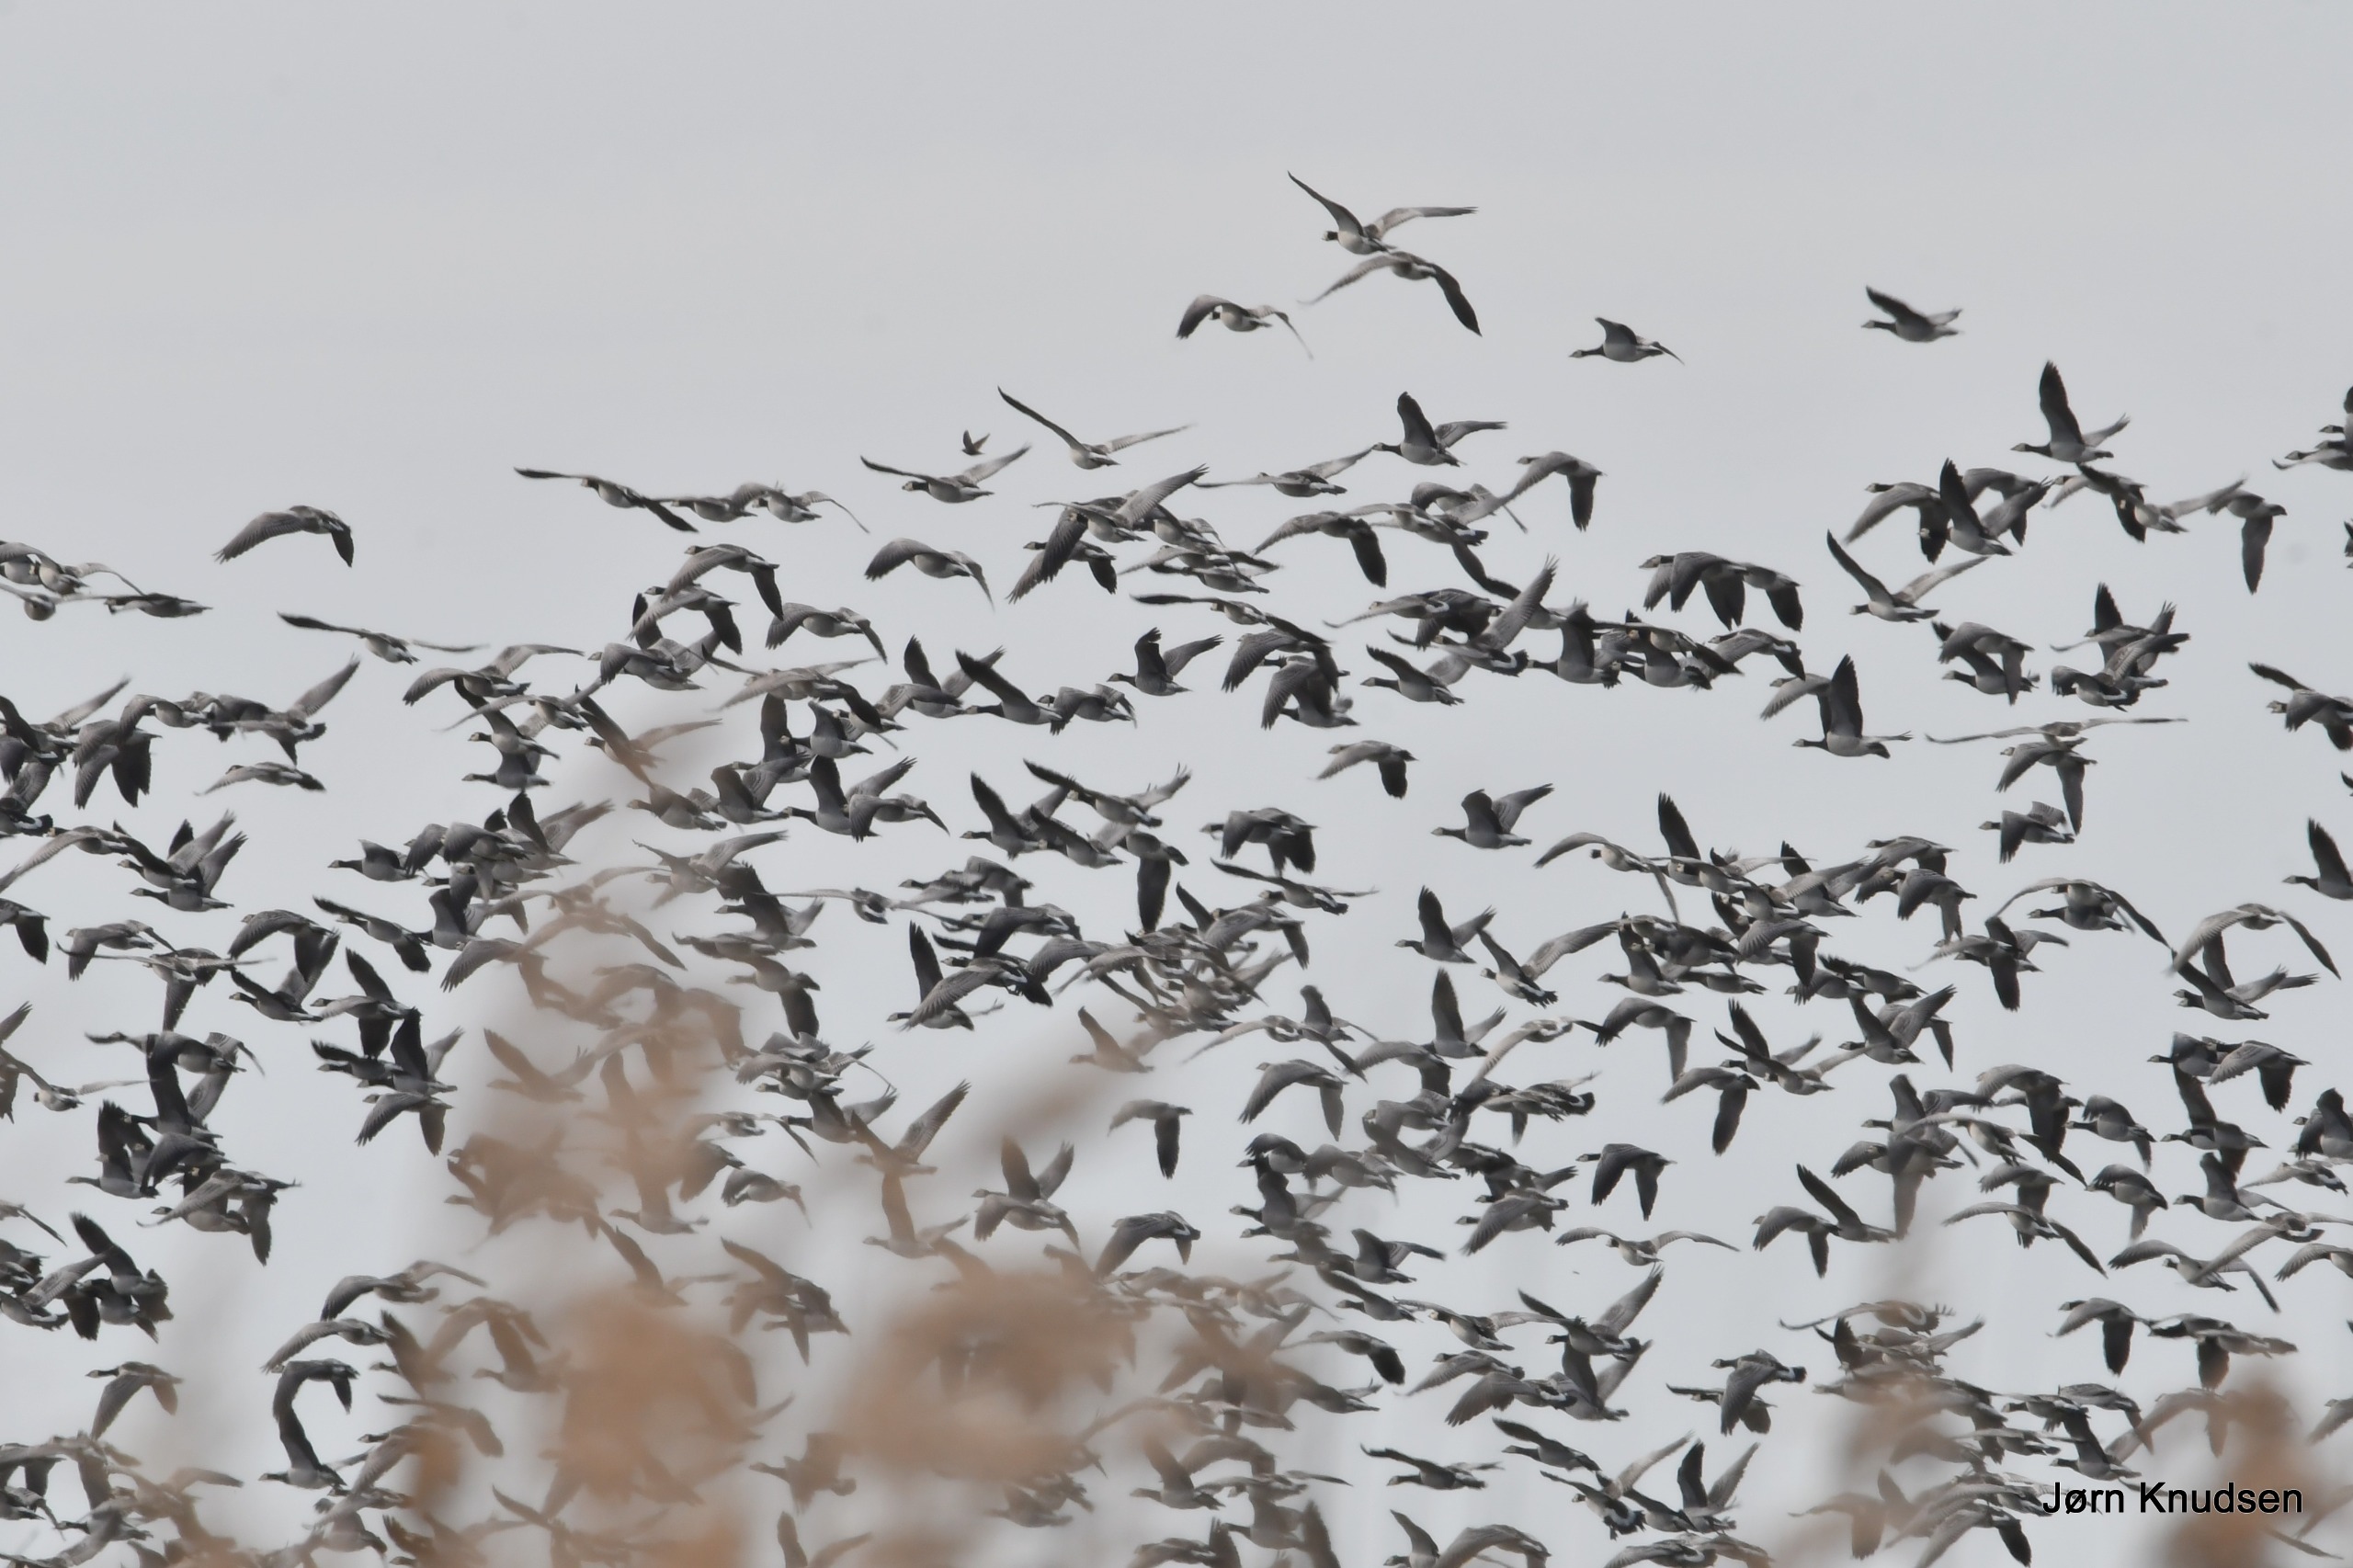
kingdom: Animalia
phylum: Chordata
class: Aves
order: Anseriformes
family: Anatidae
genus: Branta
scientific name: Branta leucopsis
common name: Bramgås
